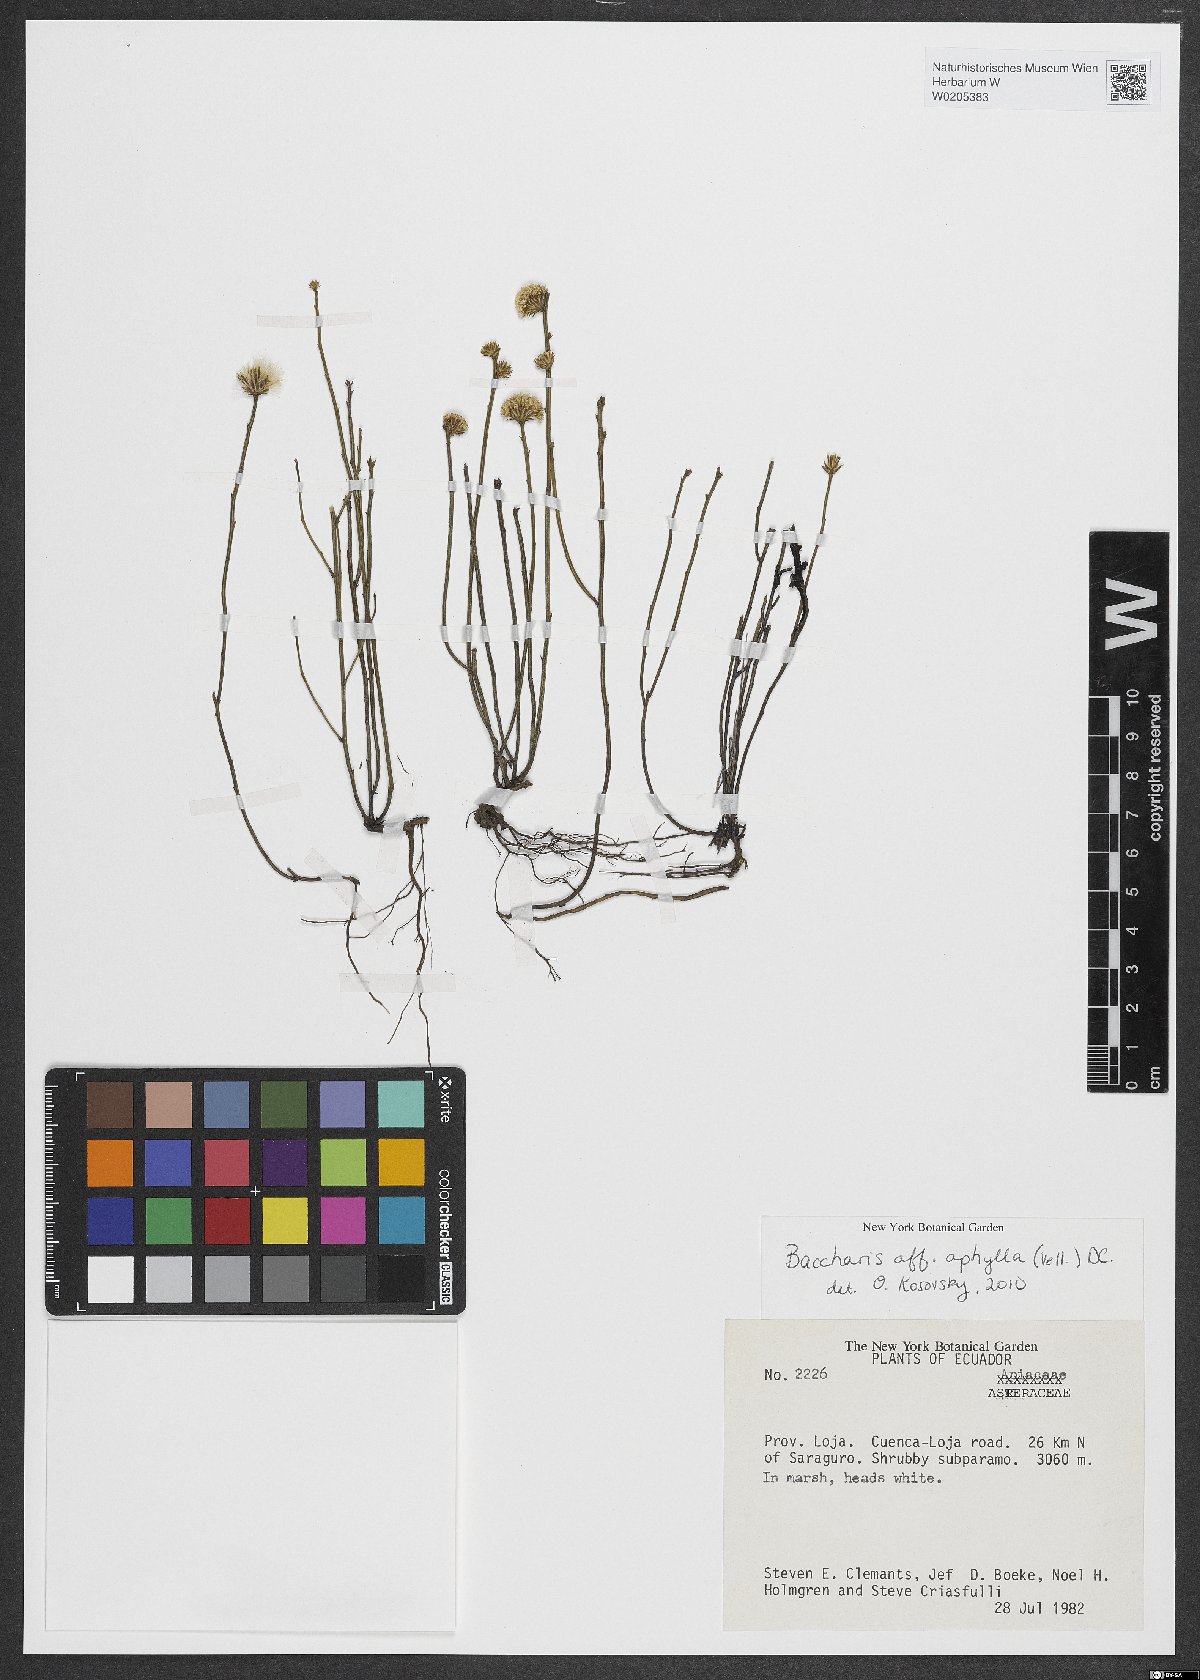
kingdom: Plantae
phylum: Tracheophyta
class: Magnoliopsida
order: Asterales
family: Asteraceae
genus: Baccharis
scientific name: Baccharis aphylla
